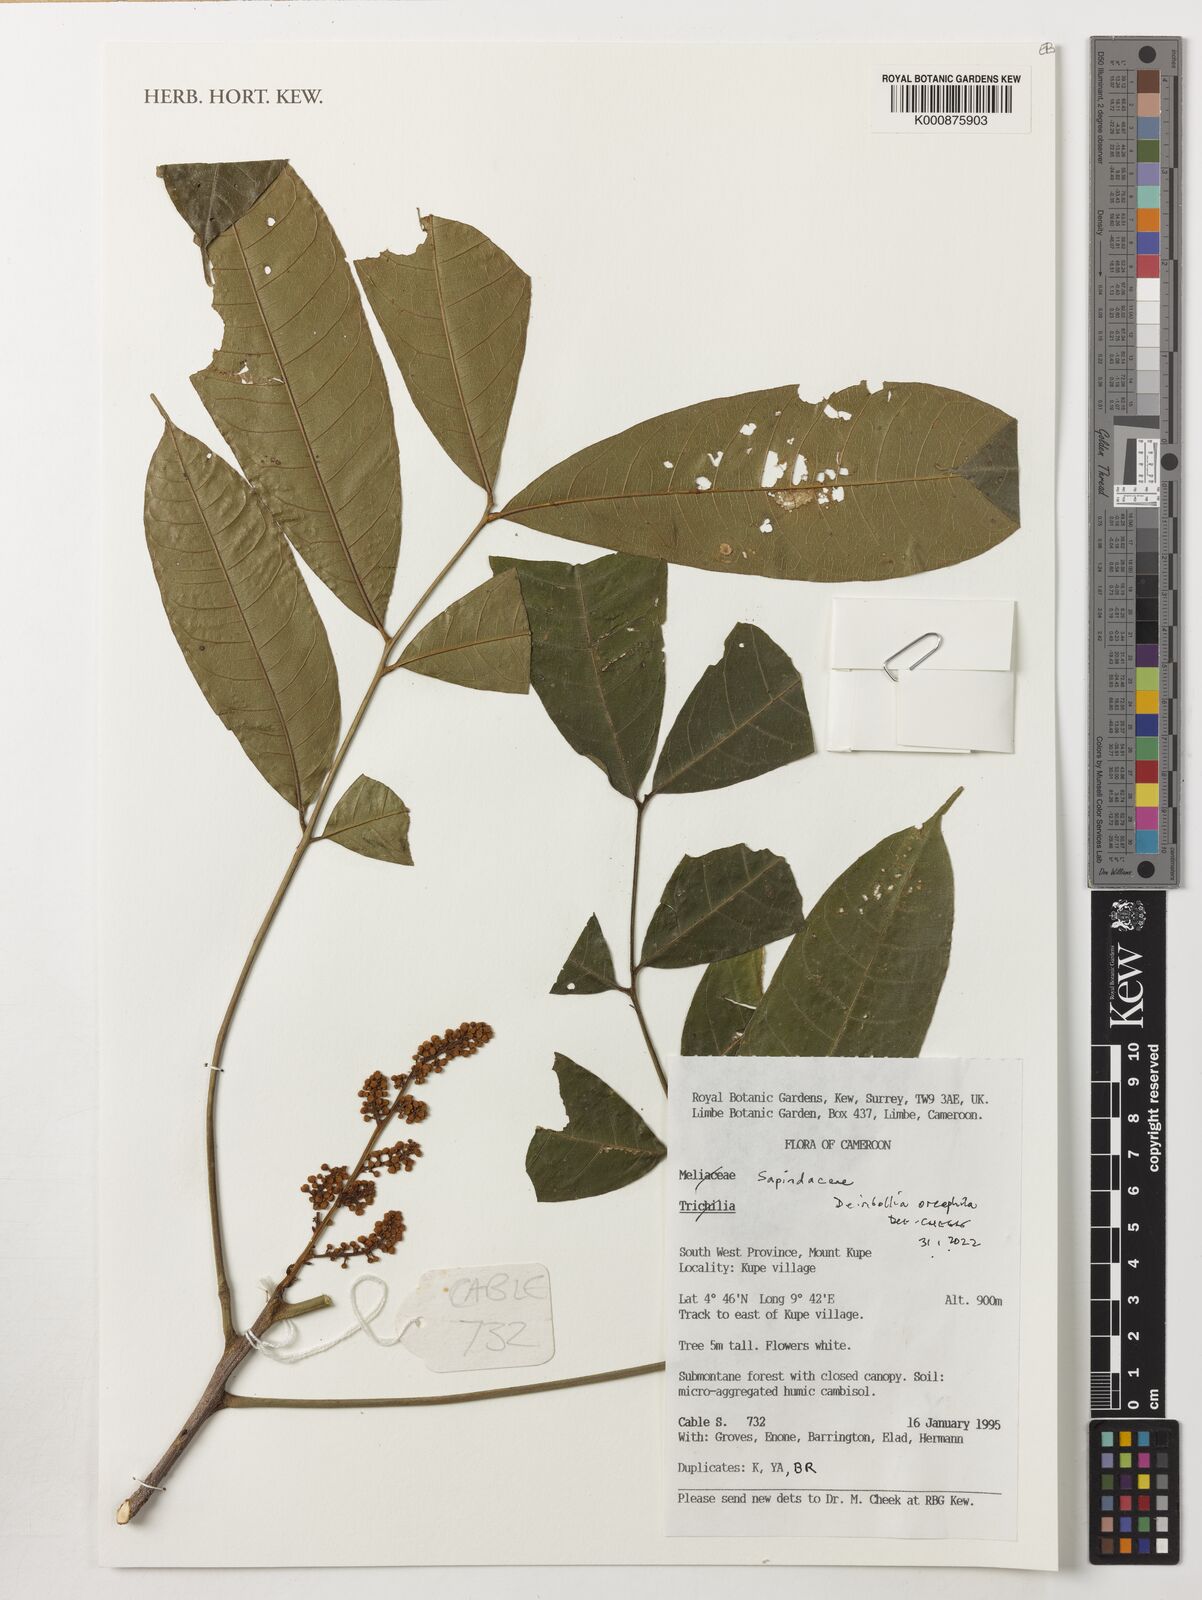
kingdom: Plantae
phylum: Tracheophyta
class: Magnoliopsida
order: Sapindales
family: Sapindaceae
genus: Deinbollia
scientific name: Deinbollia oreophila
